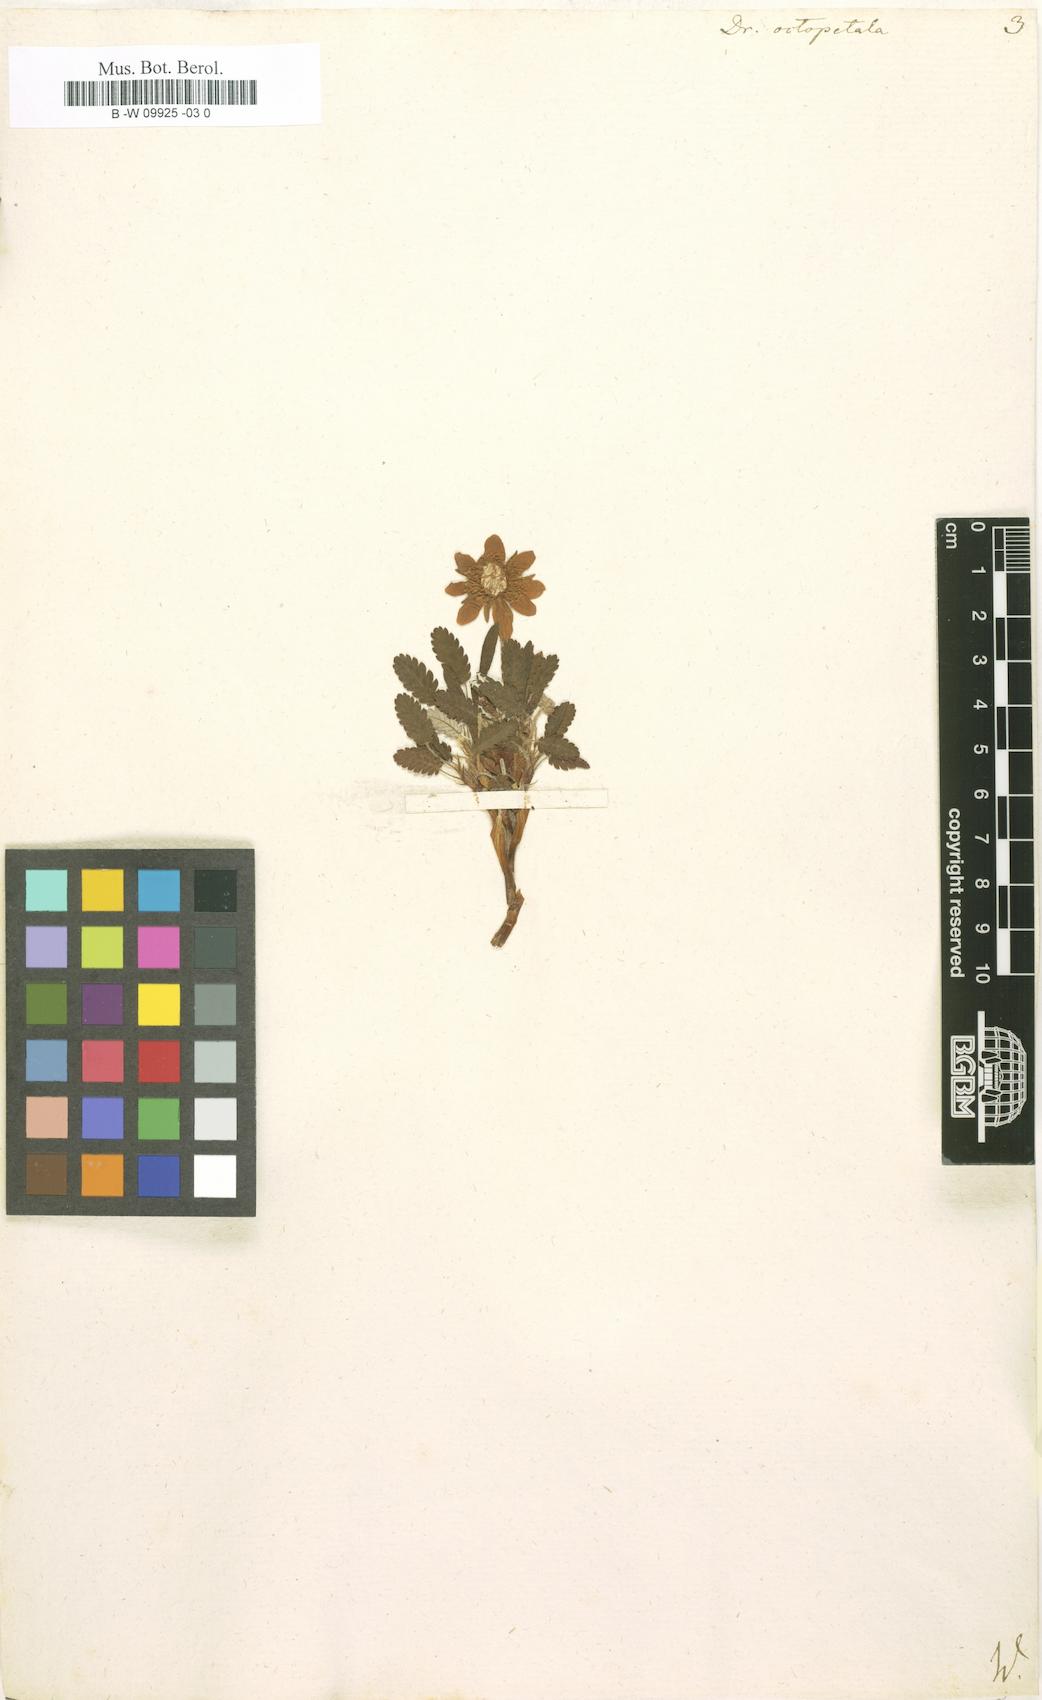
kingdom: Plantae
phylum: Tracheophyta
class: Magnoliopsida
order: Rosales
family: Rosaceae
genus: Dryas
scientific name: Dryas octopetala
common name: Eight-petal mountain-avens
